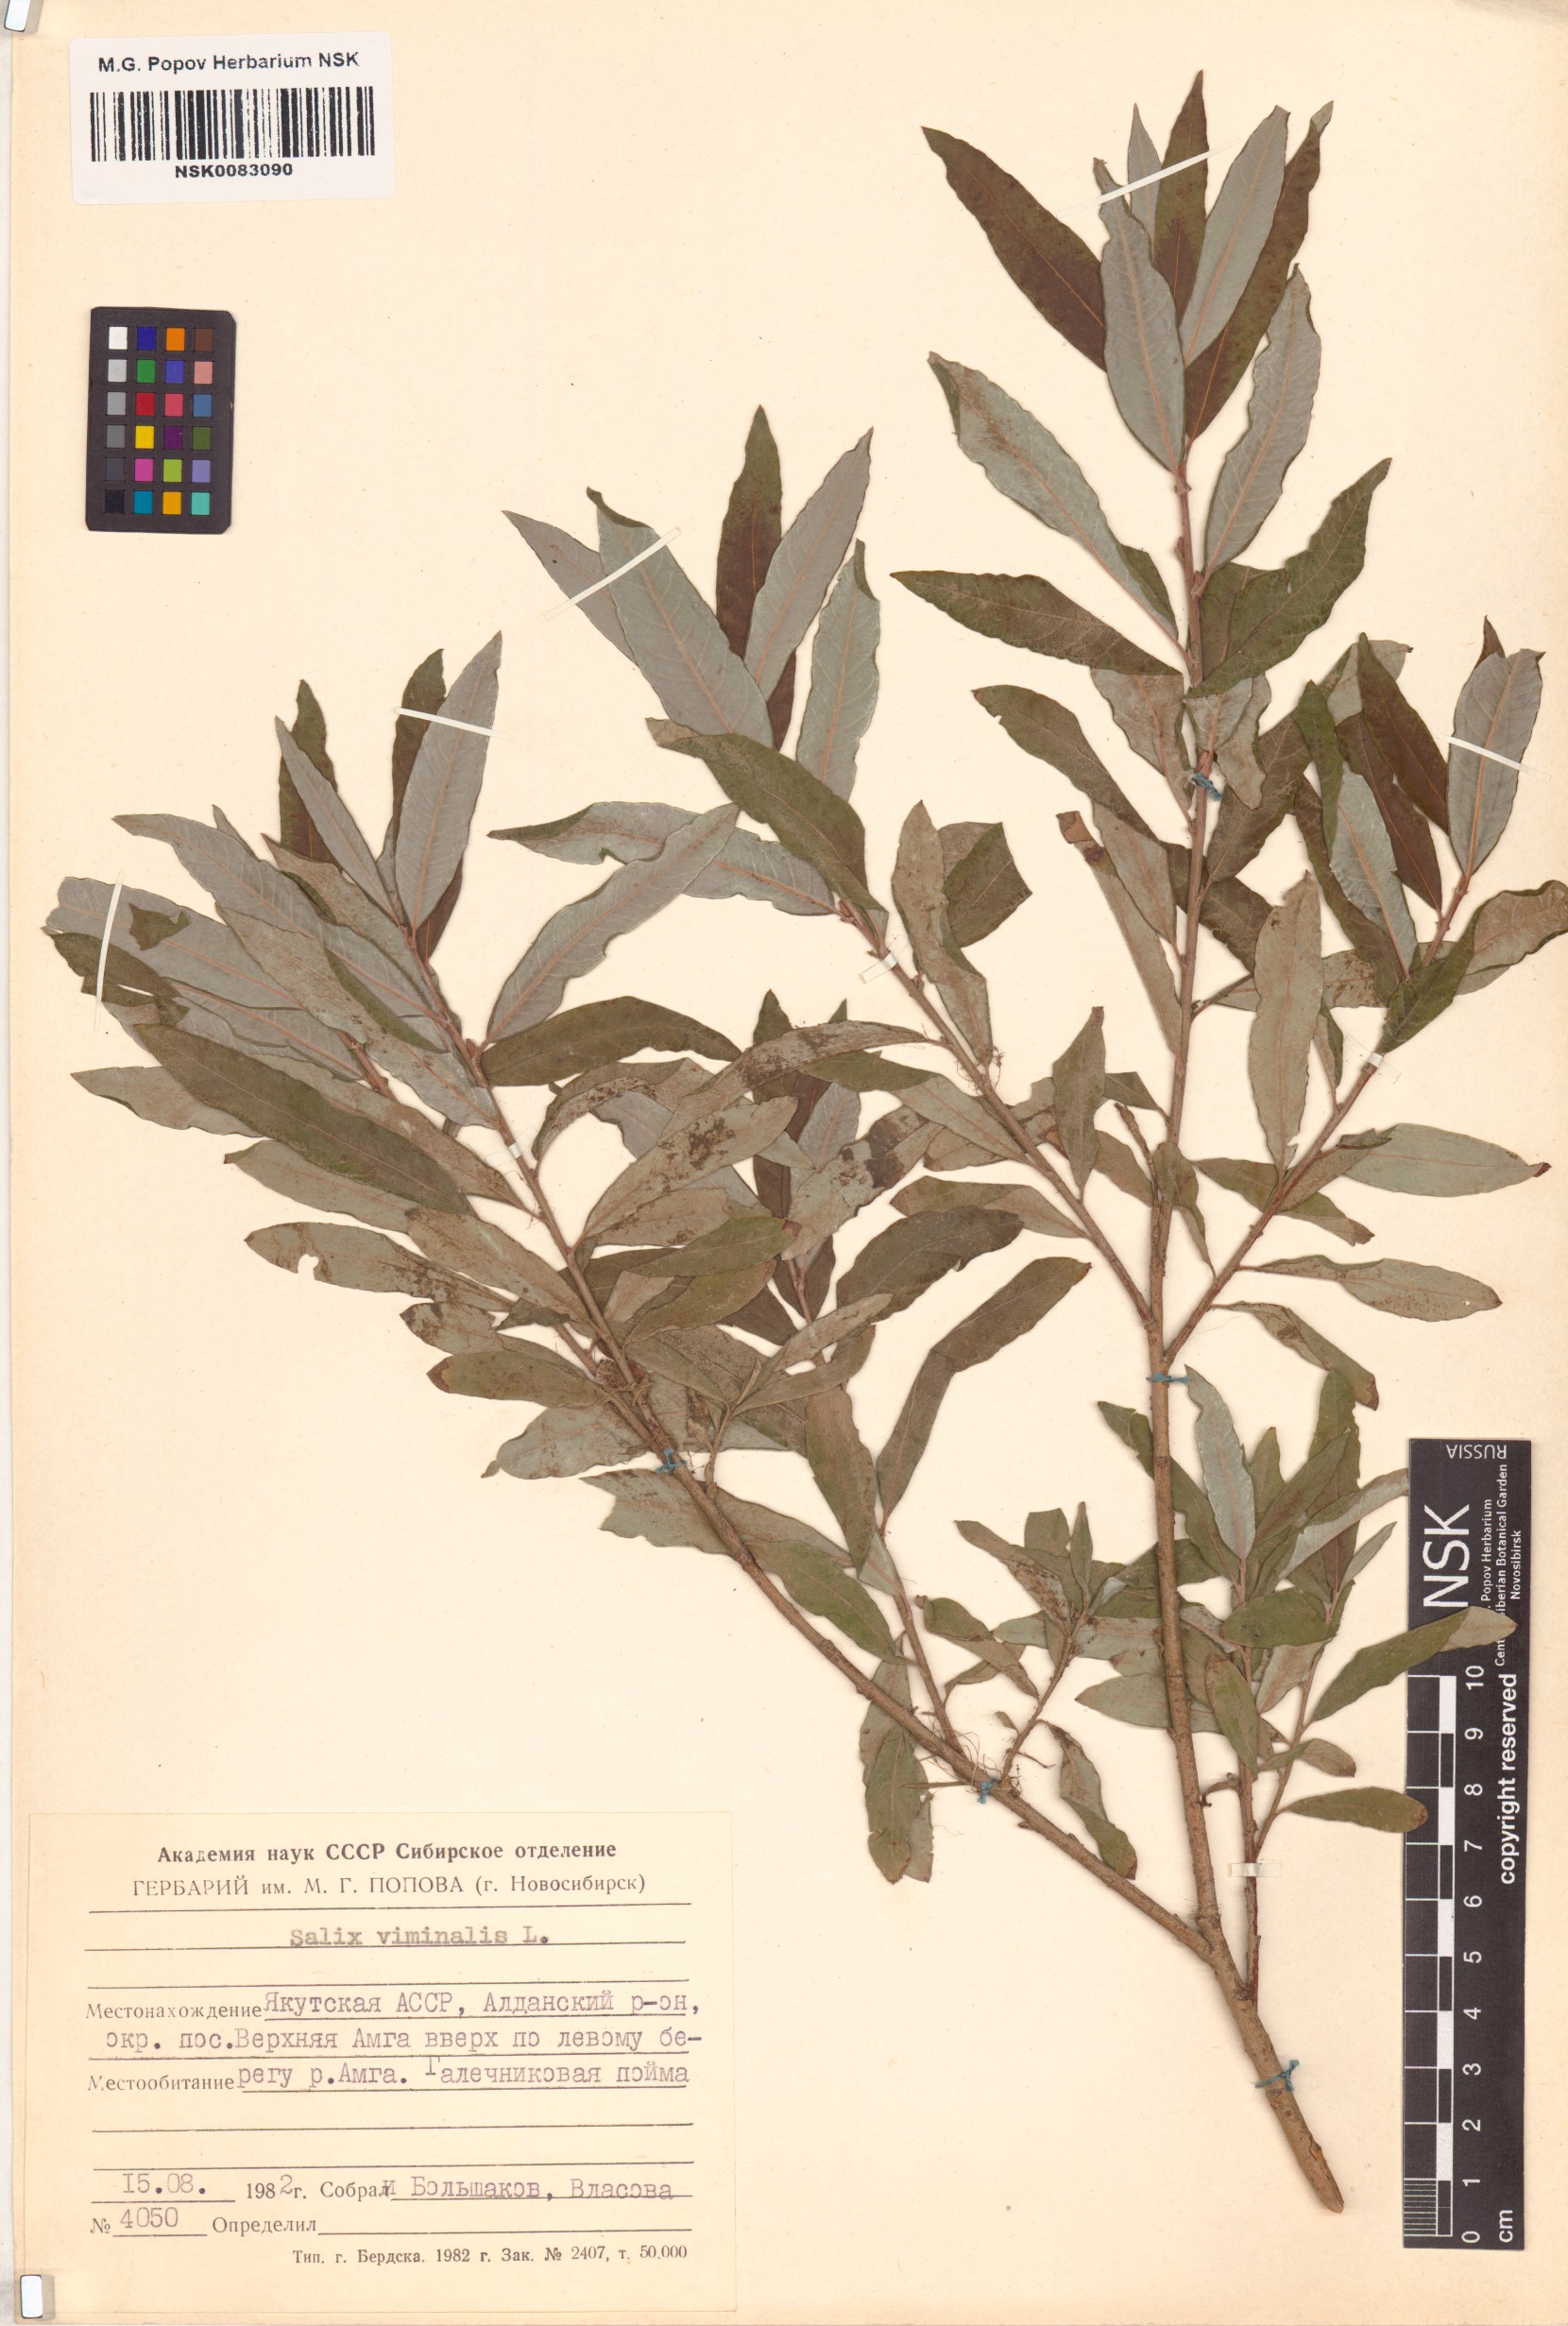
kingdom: Plantae
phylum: Tracheophyta
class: Magnoliopsida
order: Malpighiales
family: Salicaceae
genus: Salix
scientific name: Salix viminalis
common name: Osier
